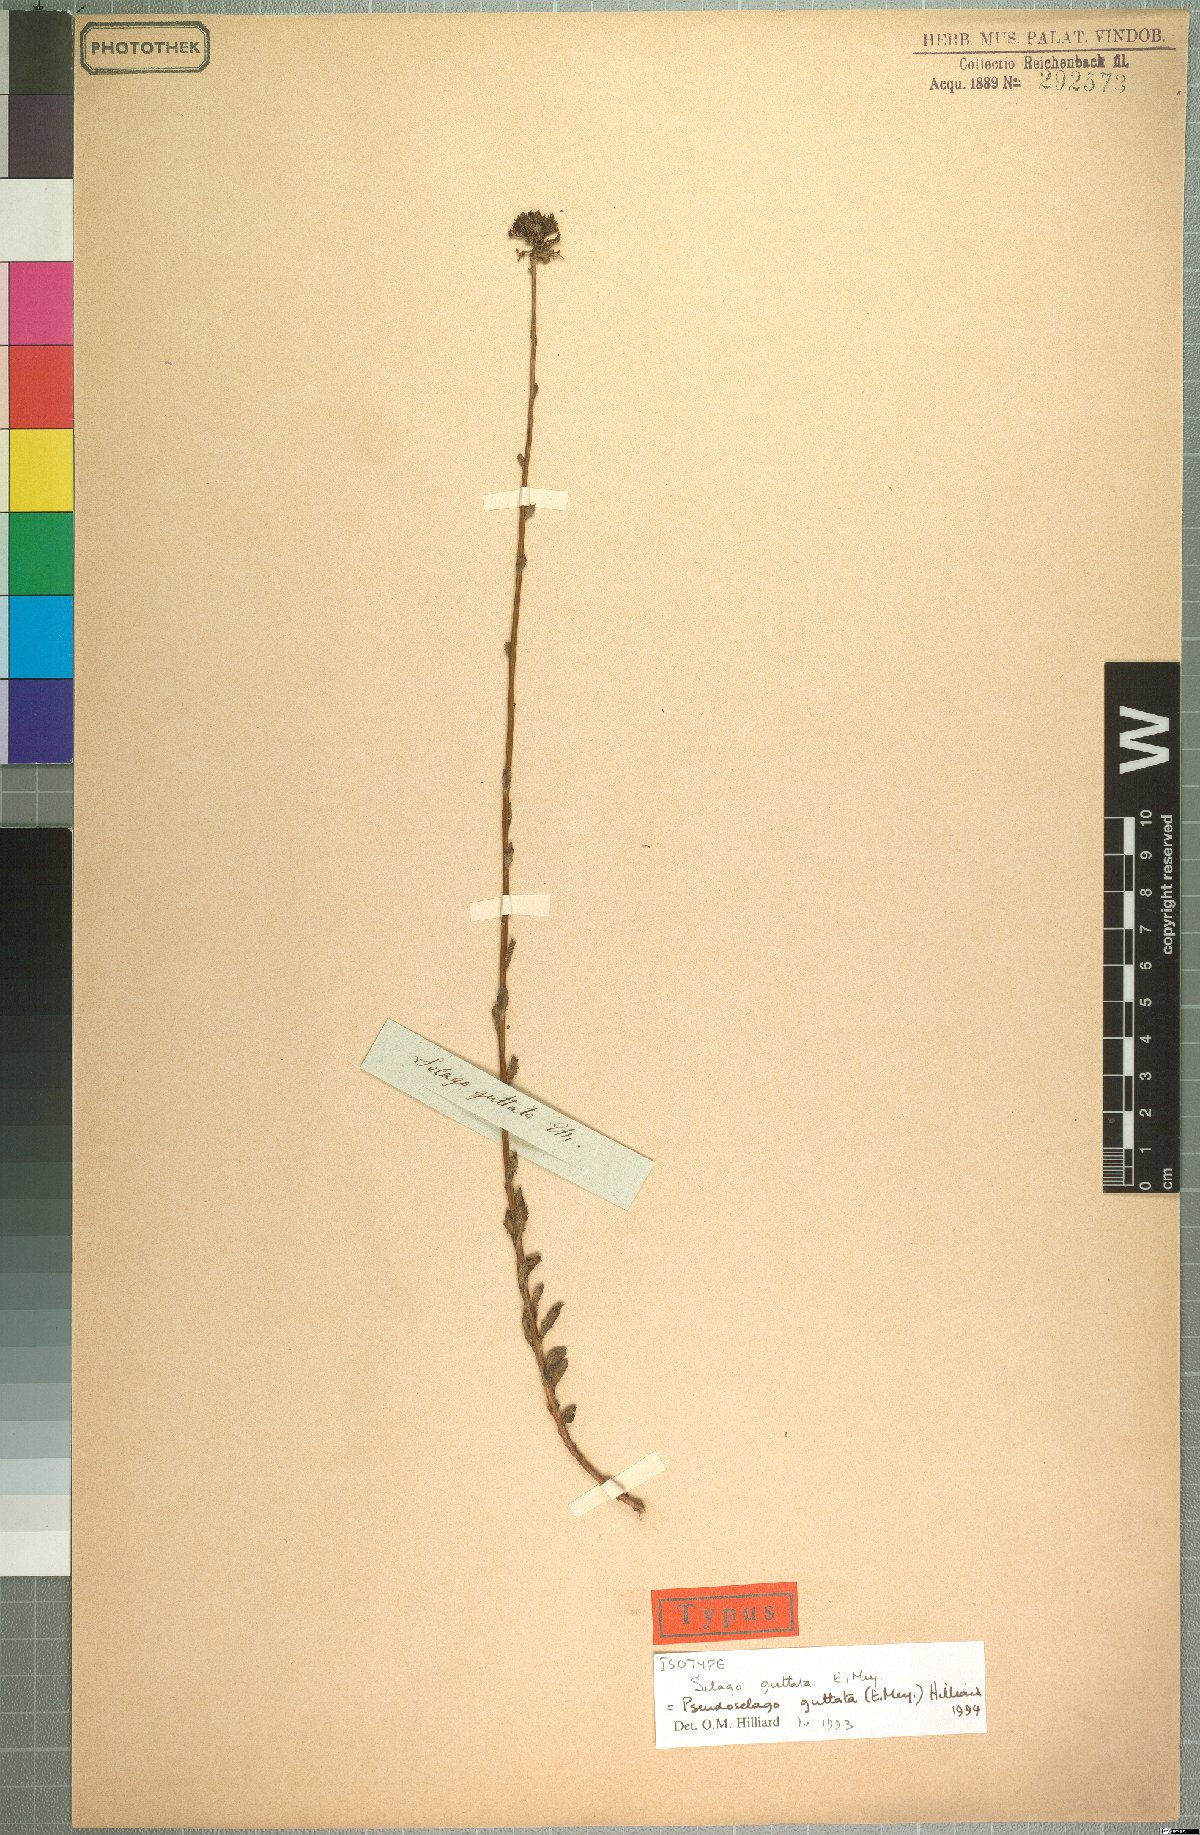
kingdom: Plantae
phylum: Tracheophyta
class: Magnoliopsida
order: Lamiales
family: Scrophulariaceae
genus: Pseudoselago
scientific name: Pseudoselago guttata
